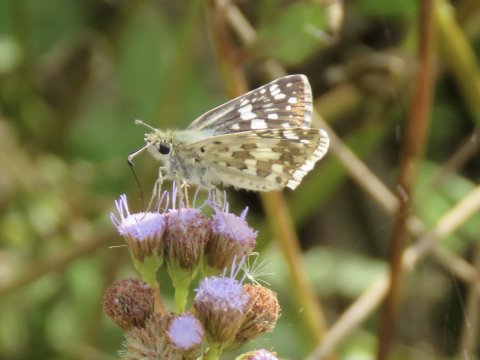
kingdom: Animalia
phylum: Arthropoda
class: Insecta
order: Lepidoptera
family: Hesperiidae
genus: Pyrgus
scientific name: Pyrgus communis
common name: White Checkered-Skipper
